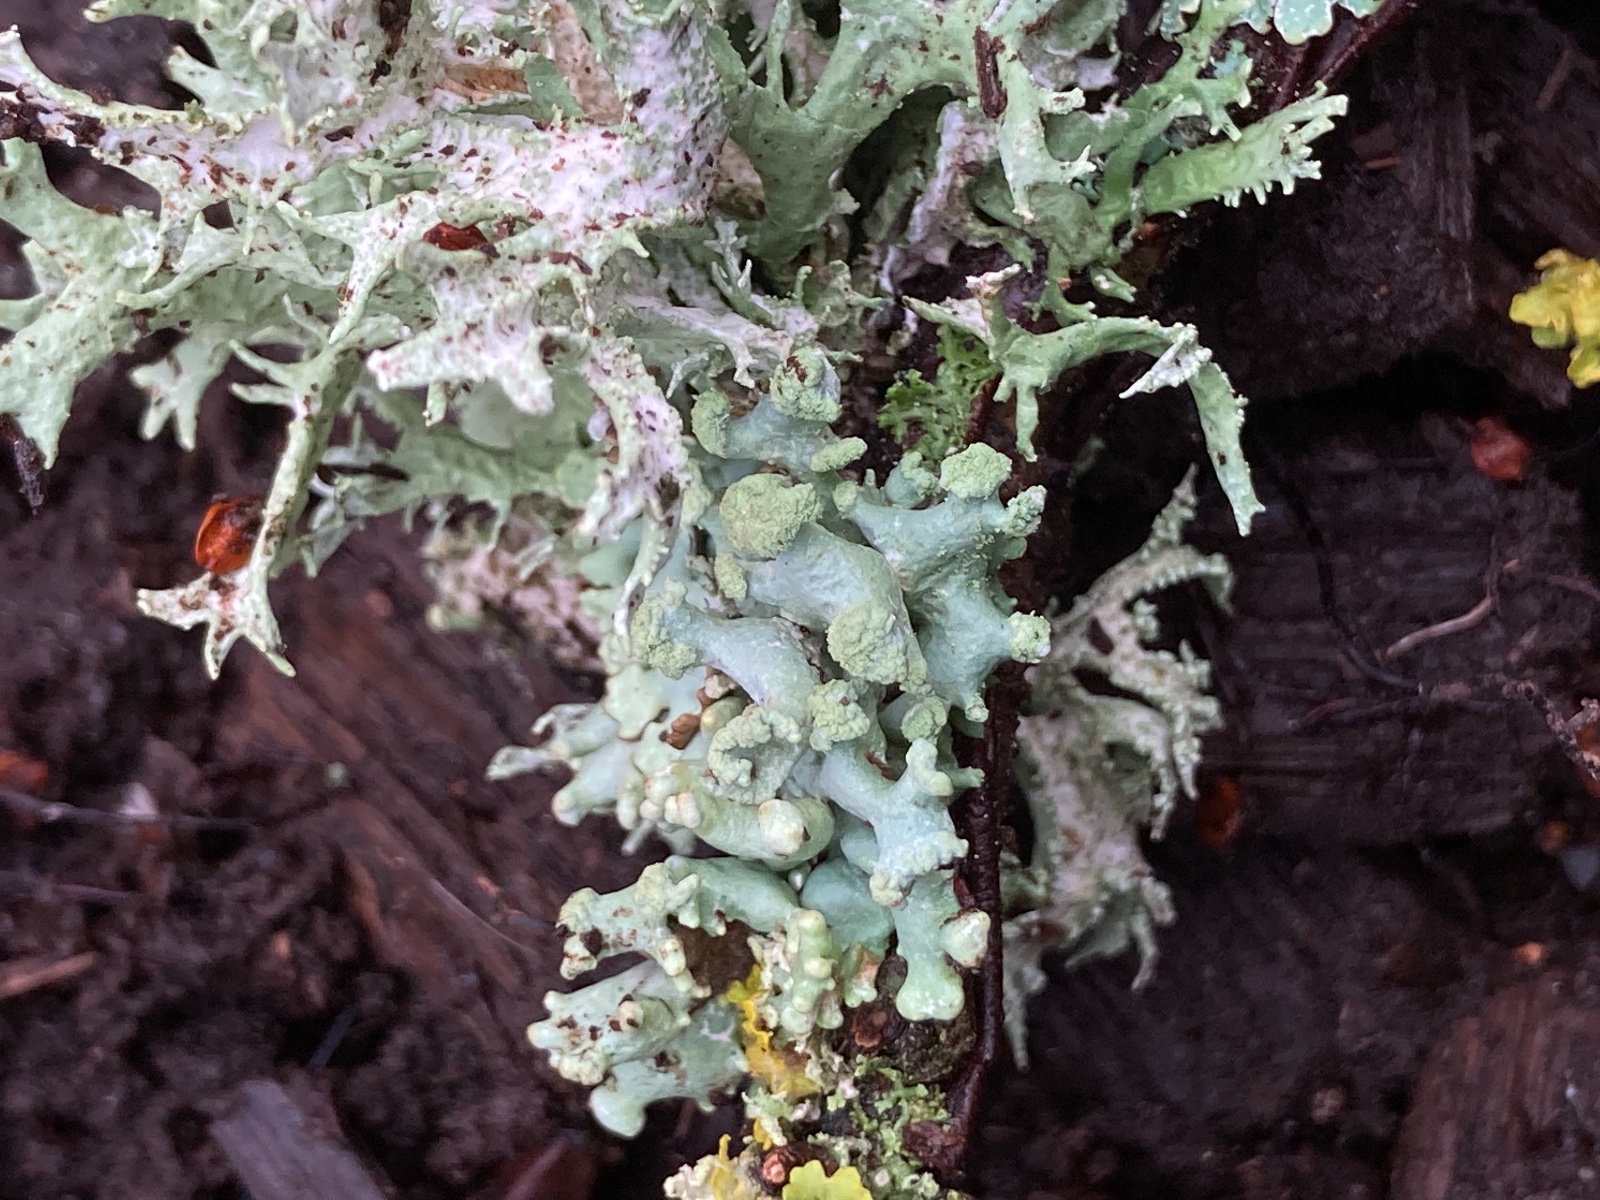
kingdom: Fungi
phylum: Ascomycota
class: Lecanoromycetes
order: Lecanorales
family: Parmeliaceae
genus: Hypogymnia
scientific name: Hypogymnia tubulosa
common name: finger-kvistlav
